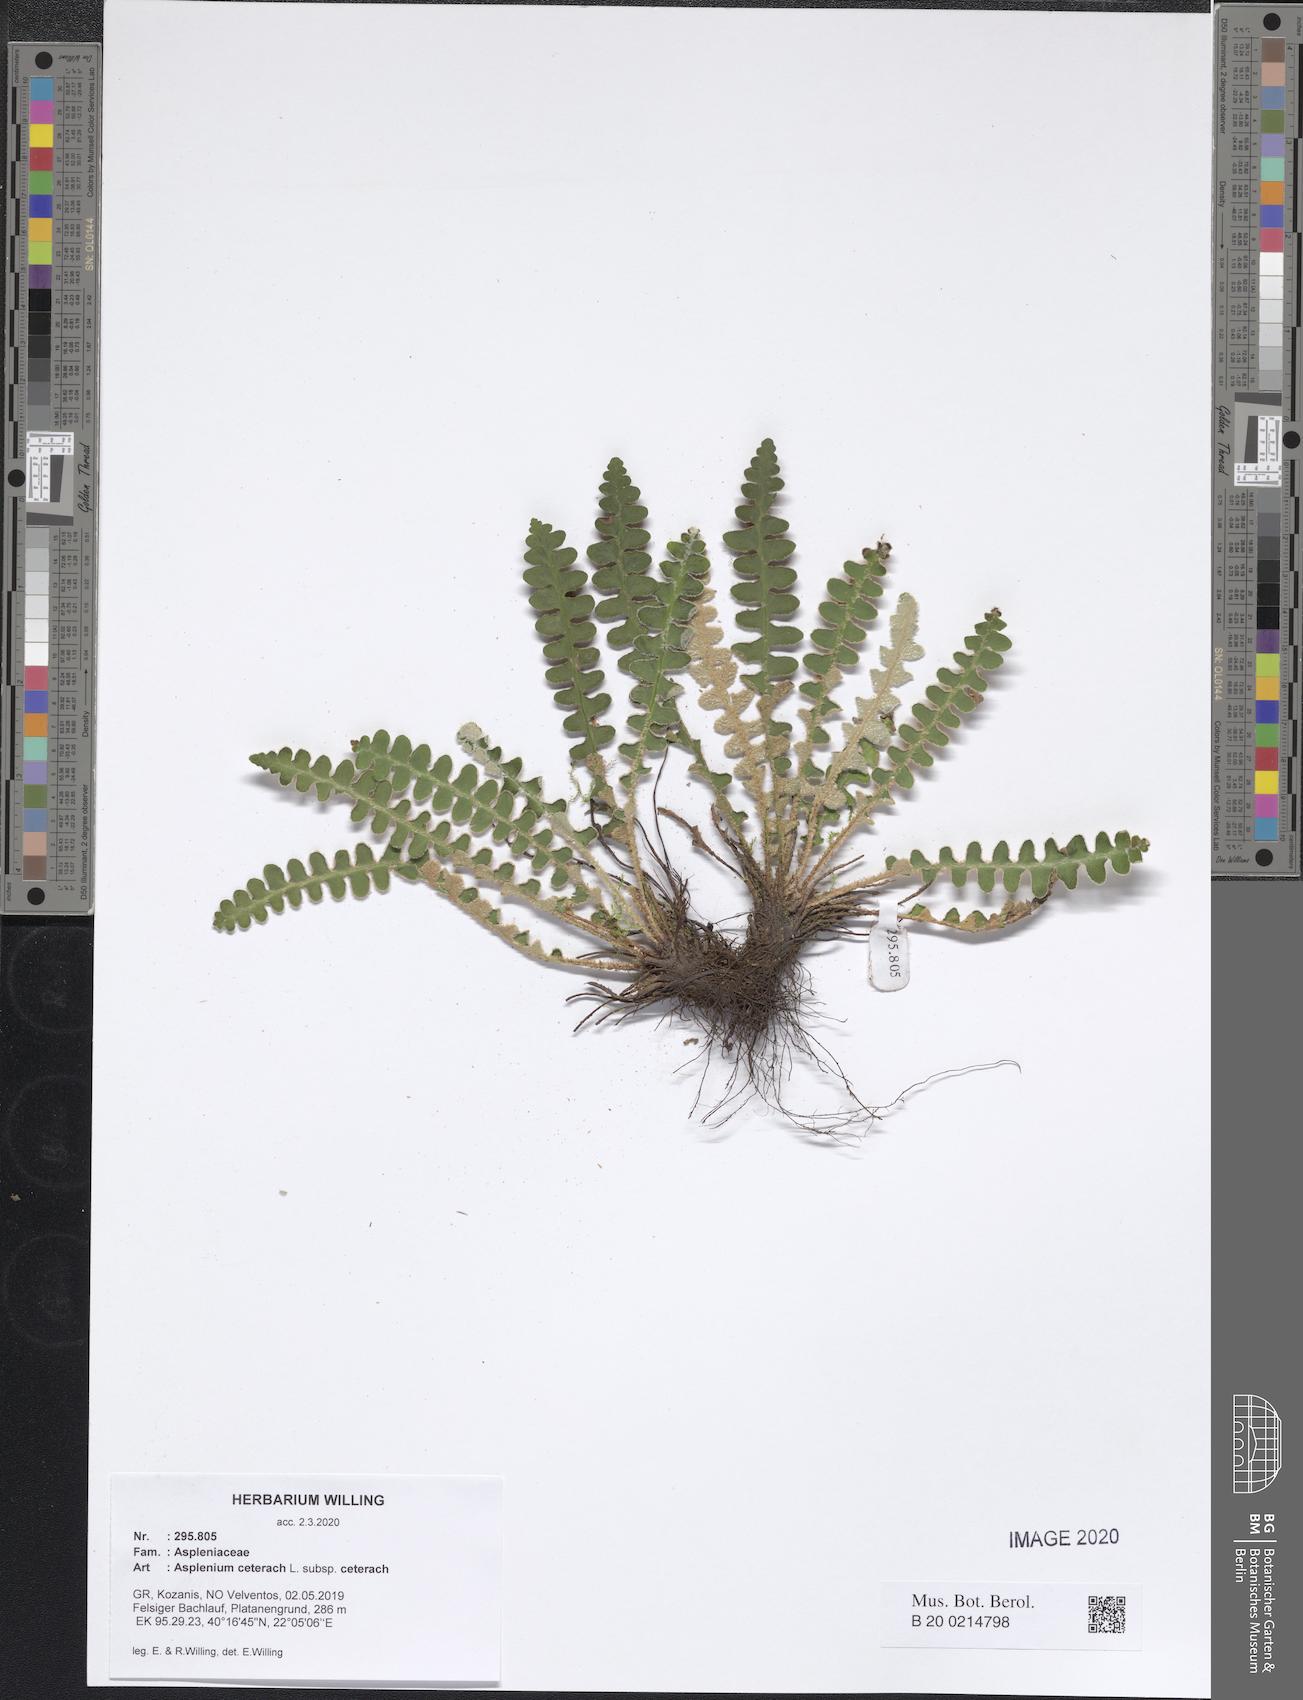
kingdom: Plantae
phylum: Tracheophyta
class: Polypodiopsida
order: Polypodiales
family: Aspleniaceae
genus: Asplenium
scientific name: Asplenium ceterach
